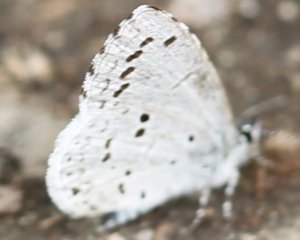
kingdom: Animalia
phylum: Arthropoda
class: Insecta
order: Lepidoptera
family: Lycaenidae
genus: Celastrina
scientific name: Celastrina ladon
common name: Spring Azure
